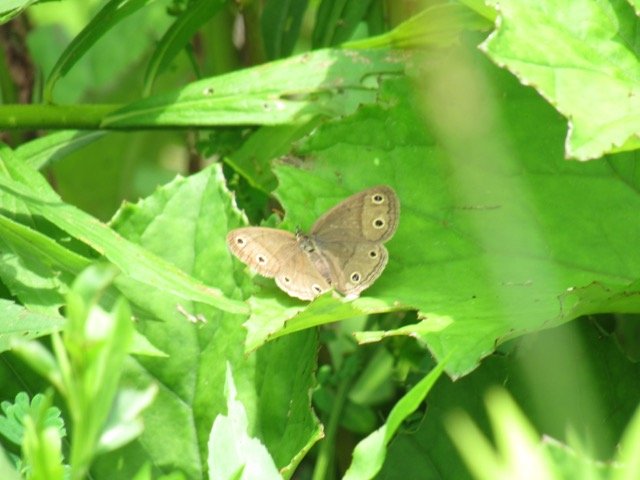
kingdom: Animalia
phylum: Arthropoda
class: Insecta
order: Lepidoptera
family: Nymphalidae
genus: Euptychia
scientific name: Euptychia cymela
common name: Little Wood Satyr
